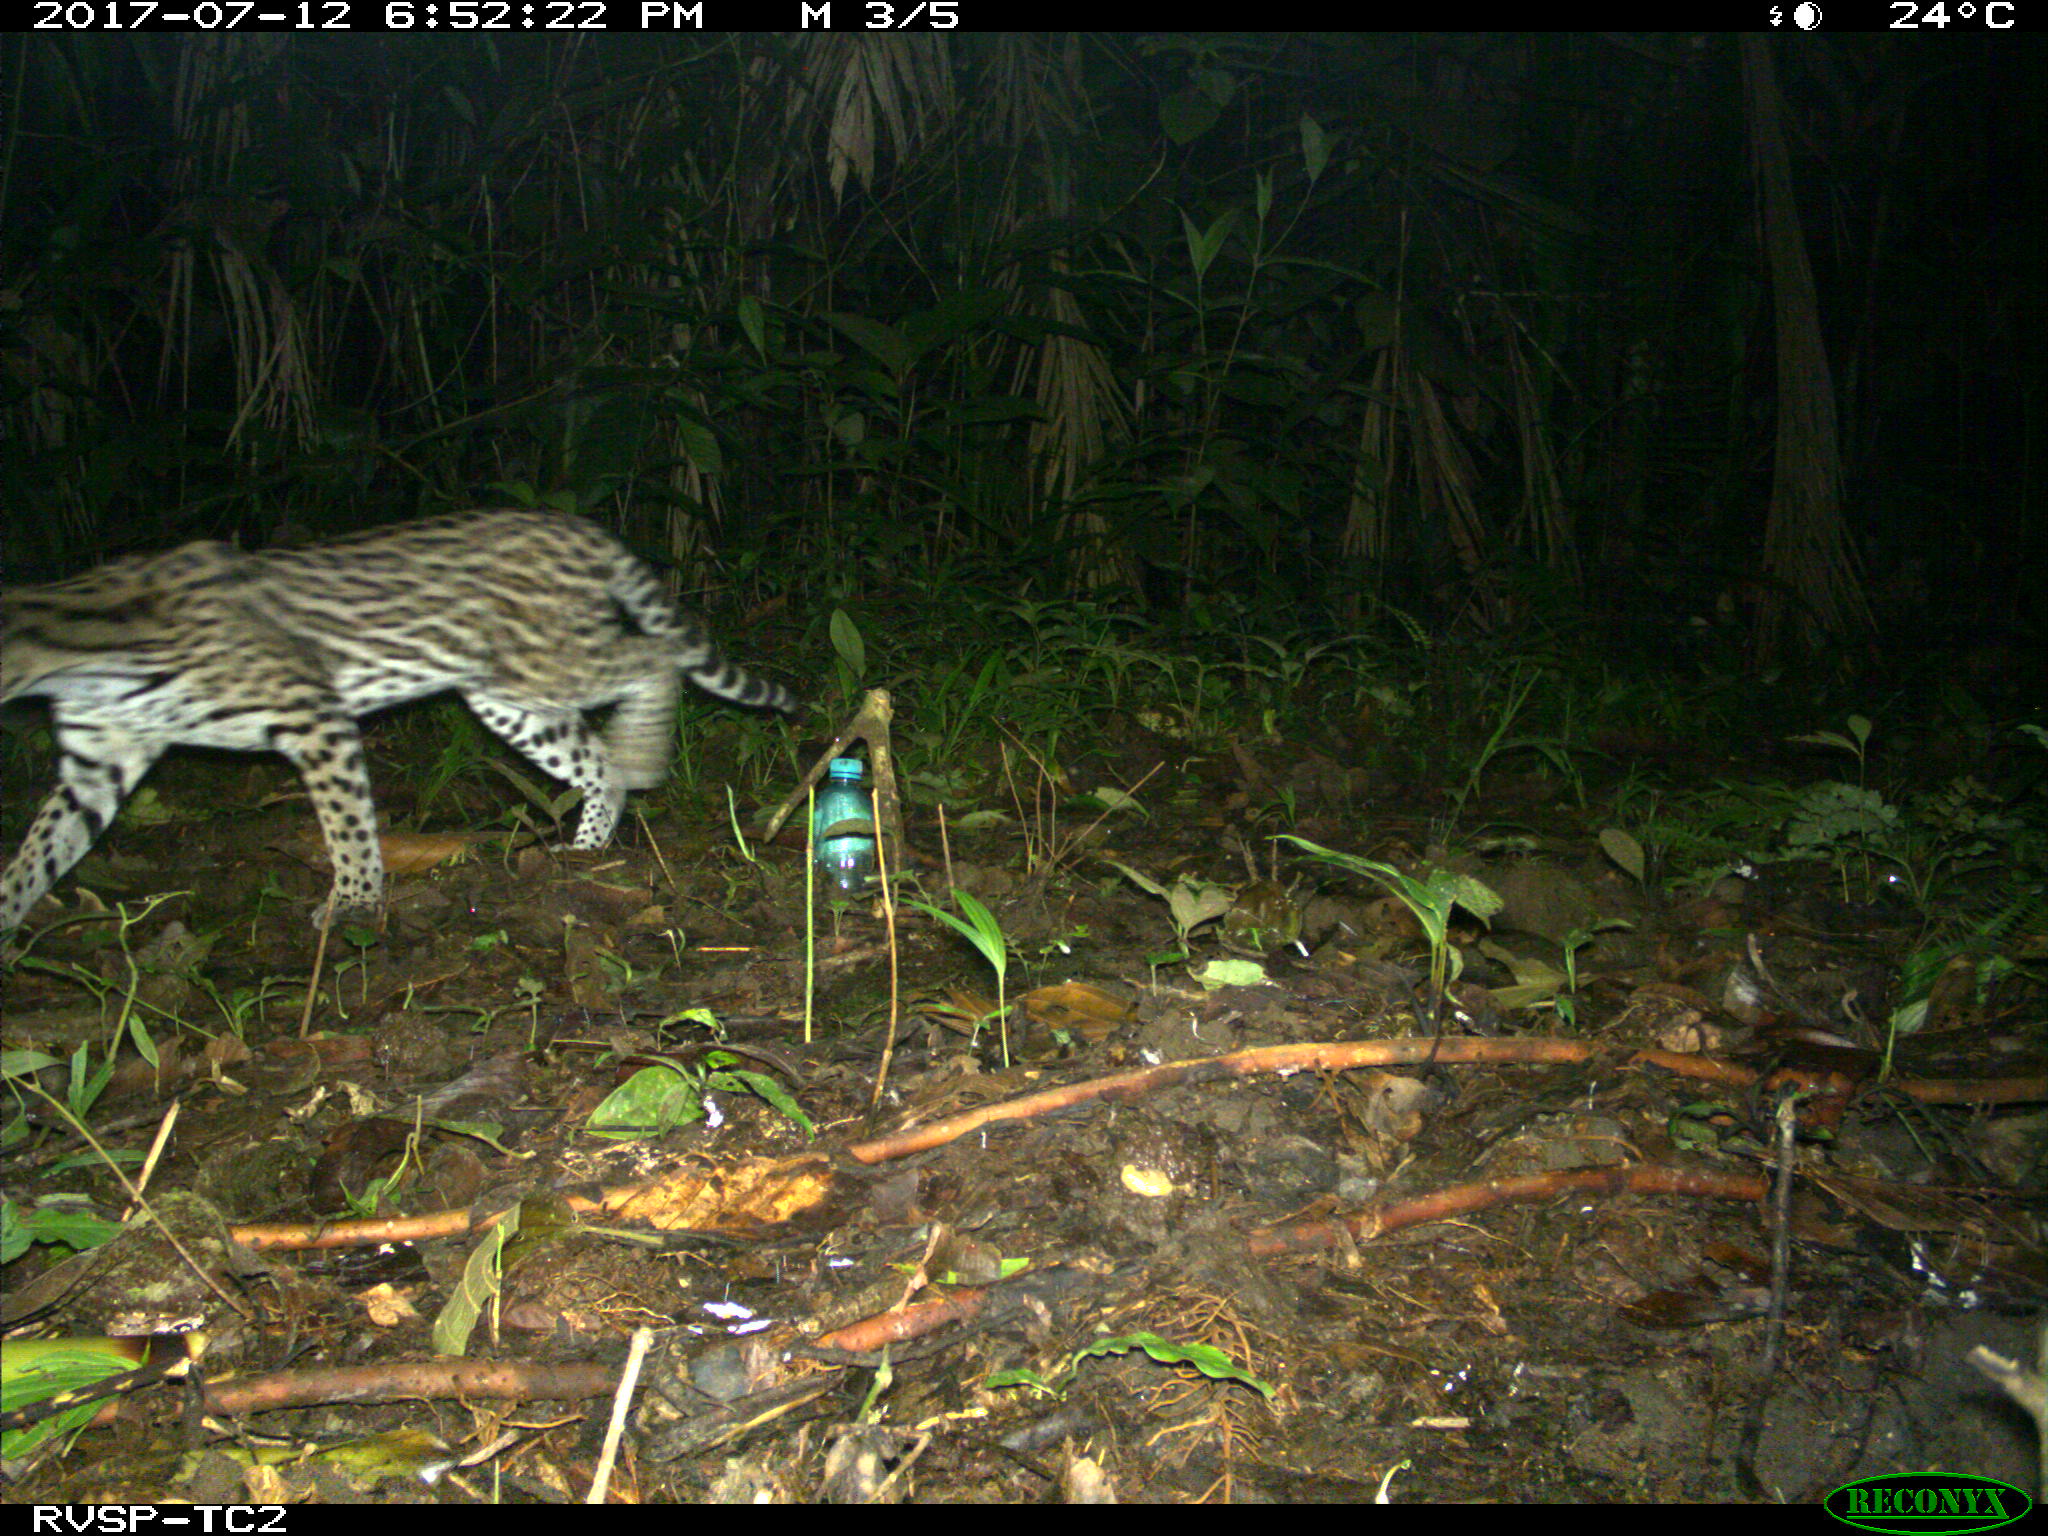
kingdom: Animalia
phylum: Chordata
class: Mammalia
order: Carnivora
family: Felidae
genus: Leopardus
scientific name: Leopardus pardalis
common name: Ocelot
